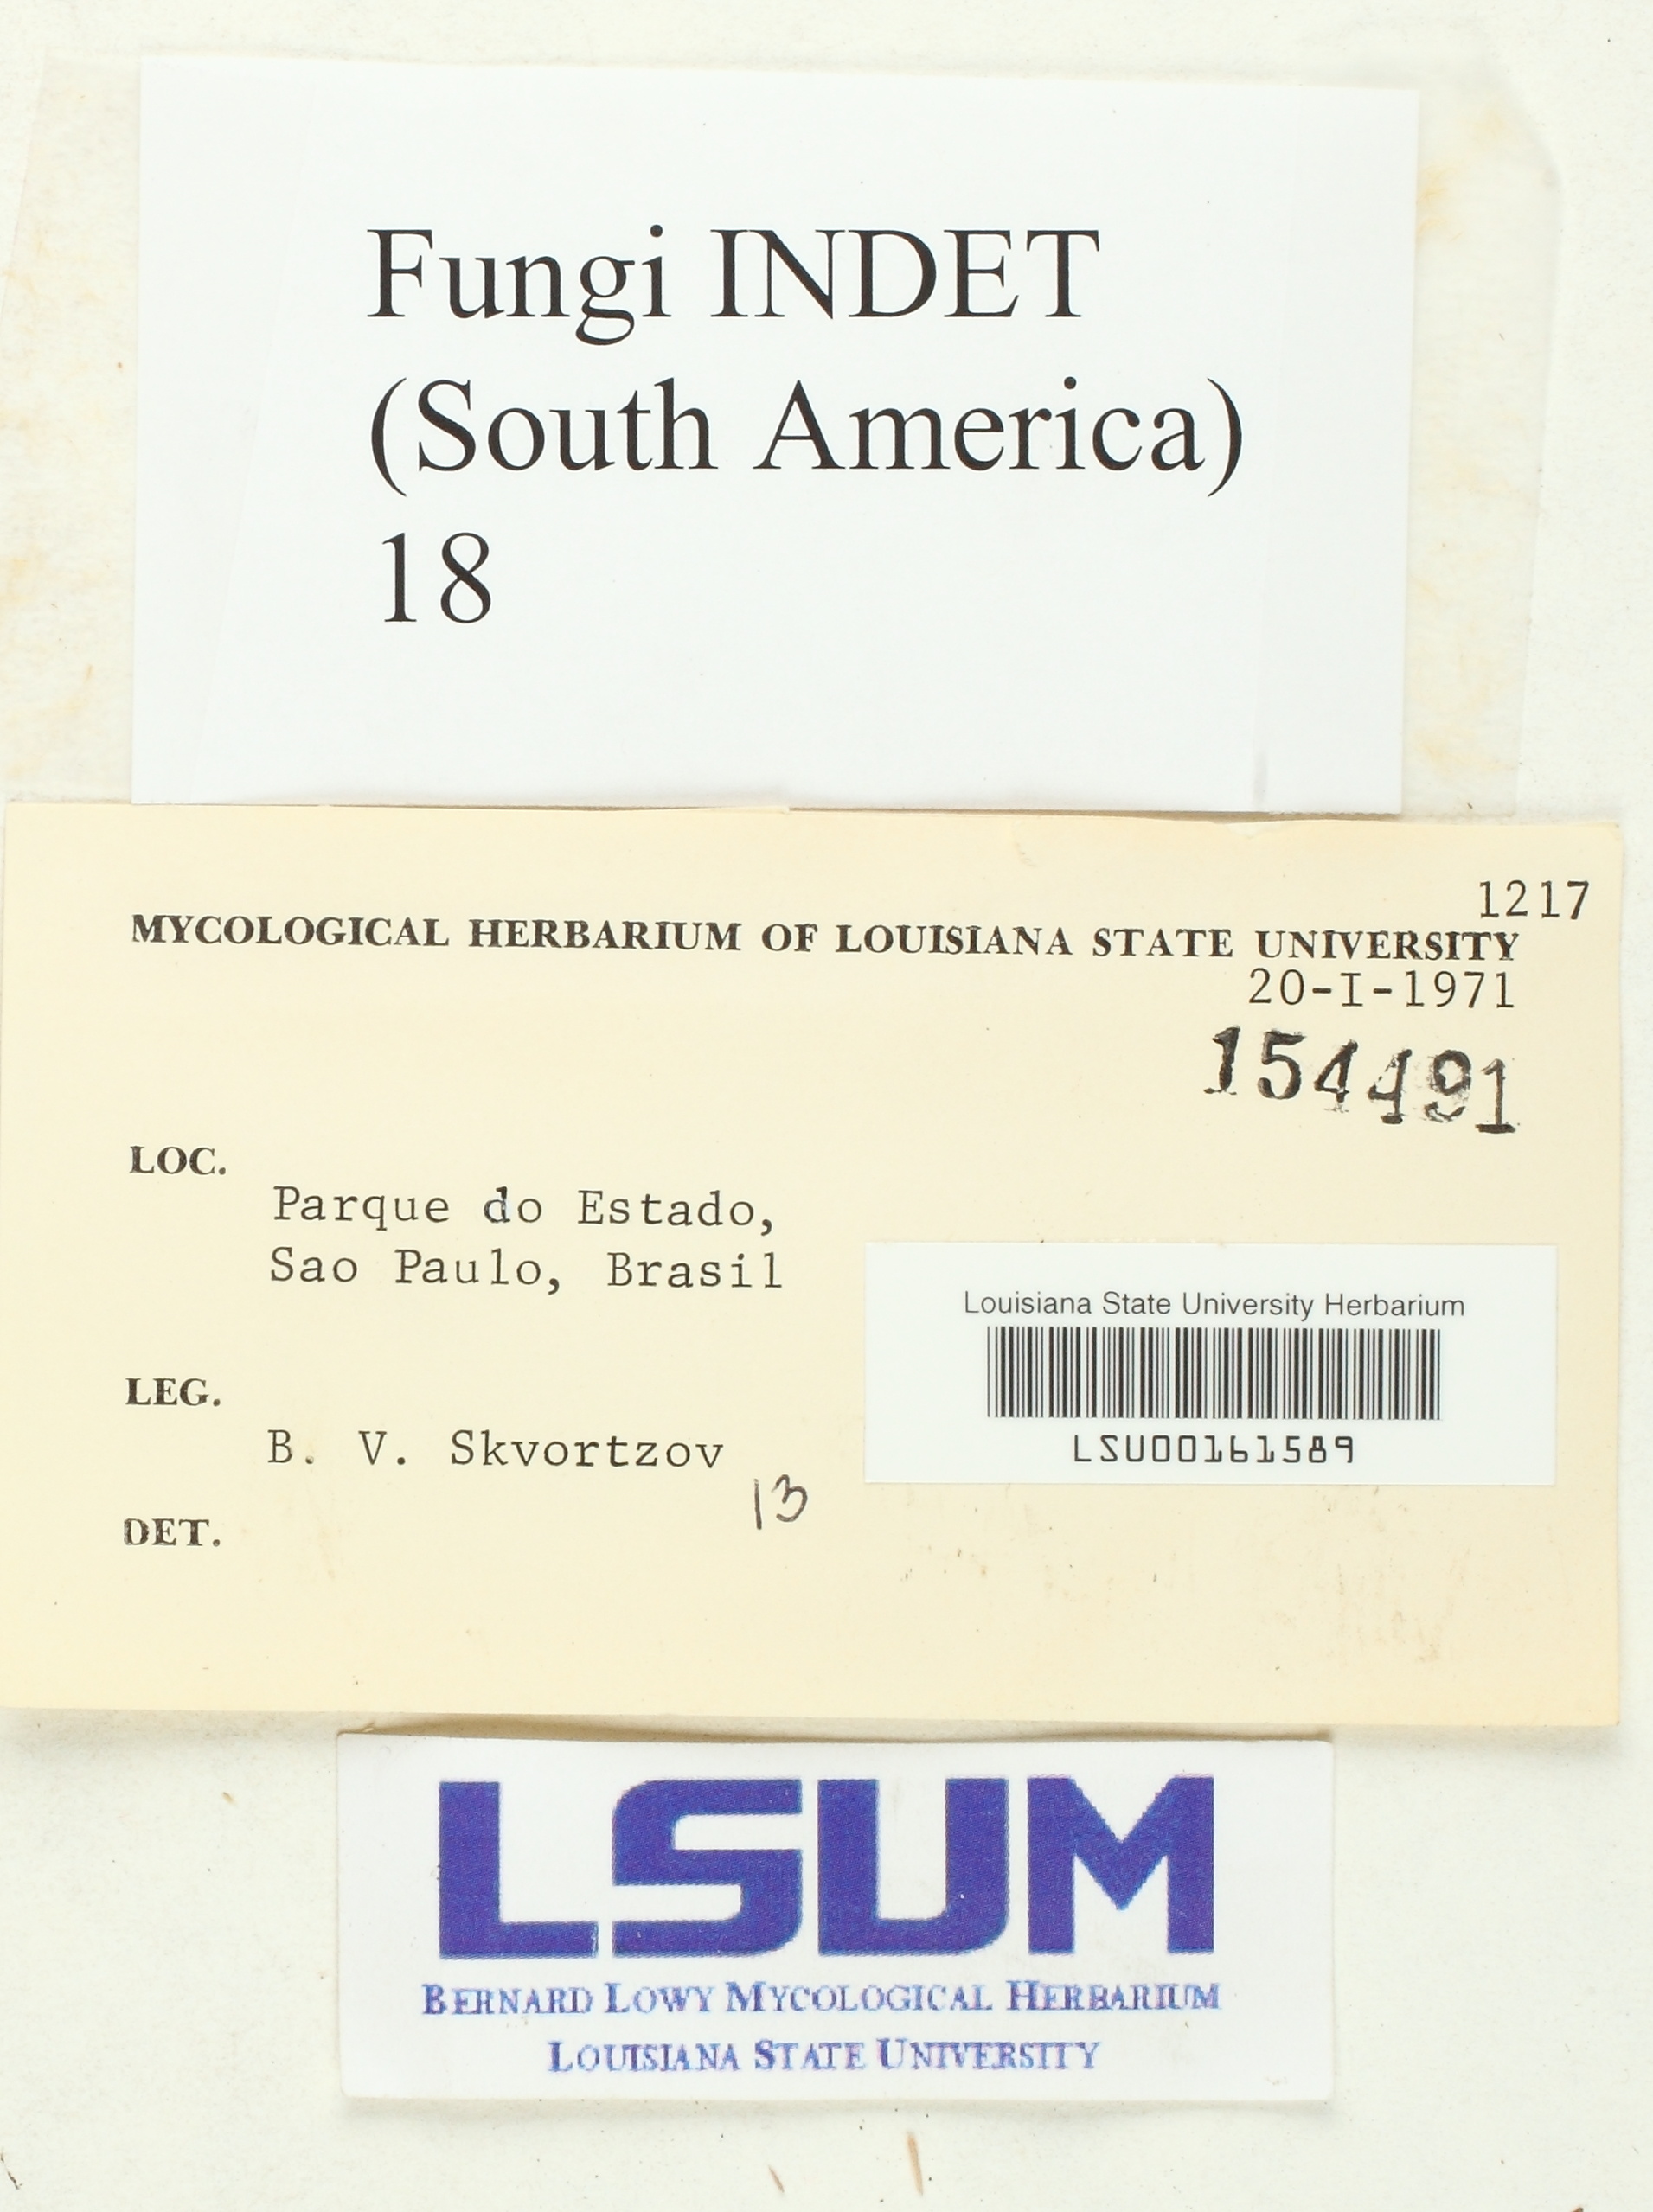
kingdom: Fungi
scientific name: Fungi
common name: Fungi
